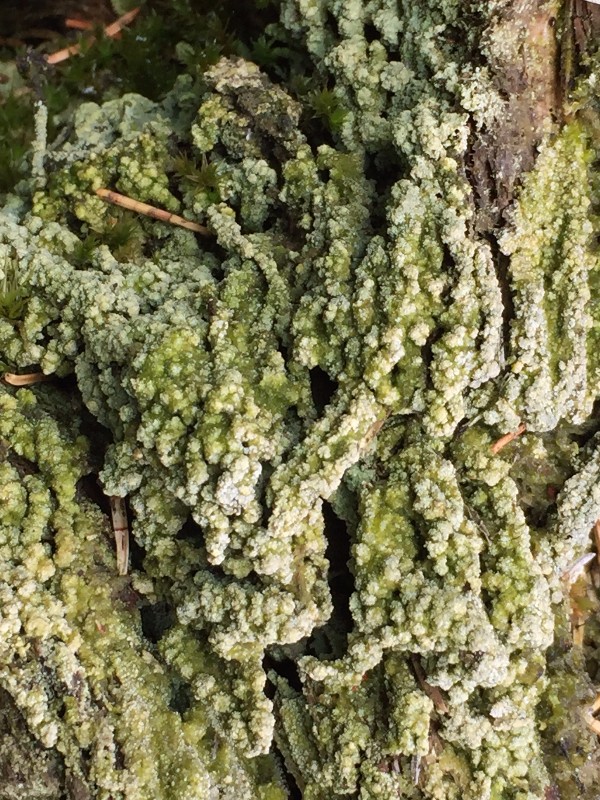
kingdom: Fungi
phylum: Ascomycota
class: Lecanoromycetes
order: Baeomycetales
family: Trapeliaceae
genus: Trapeliopsis
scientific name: Trapeliopsis granulosa
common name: forskelligfarvet skivelav
